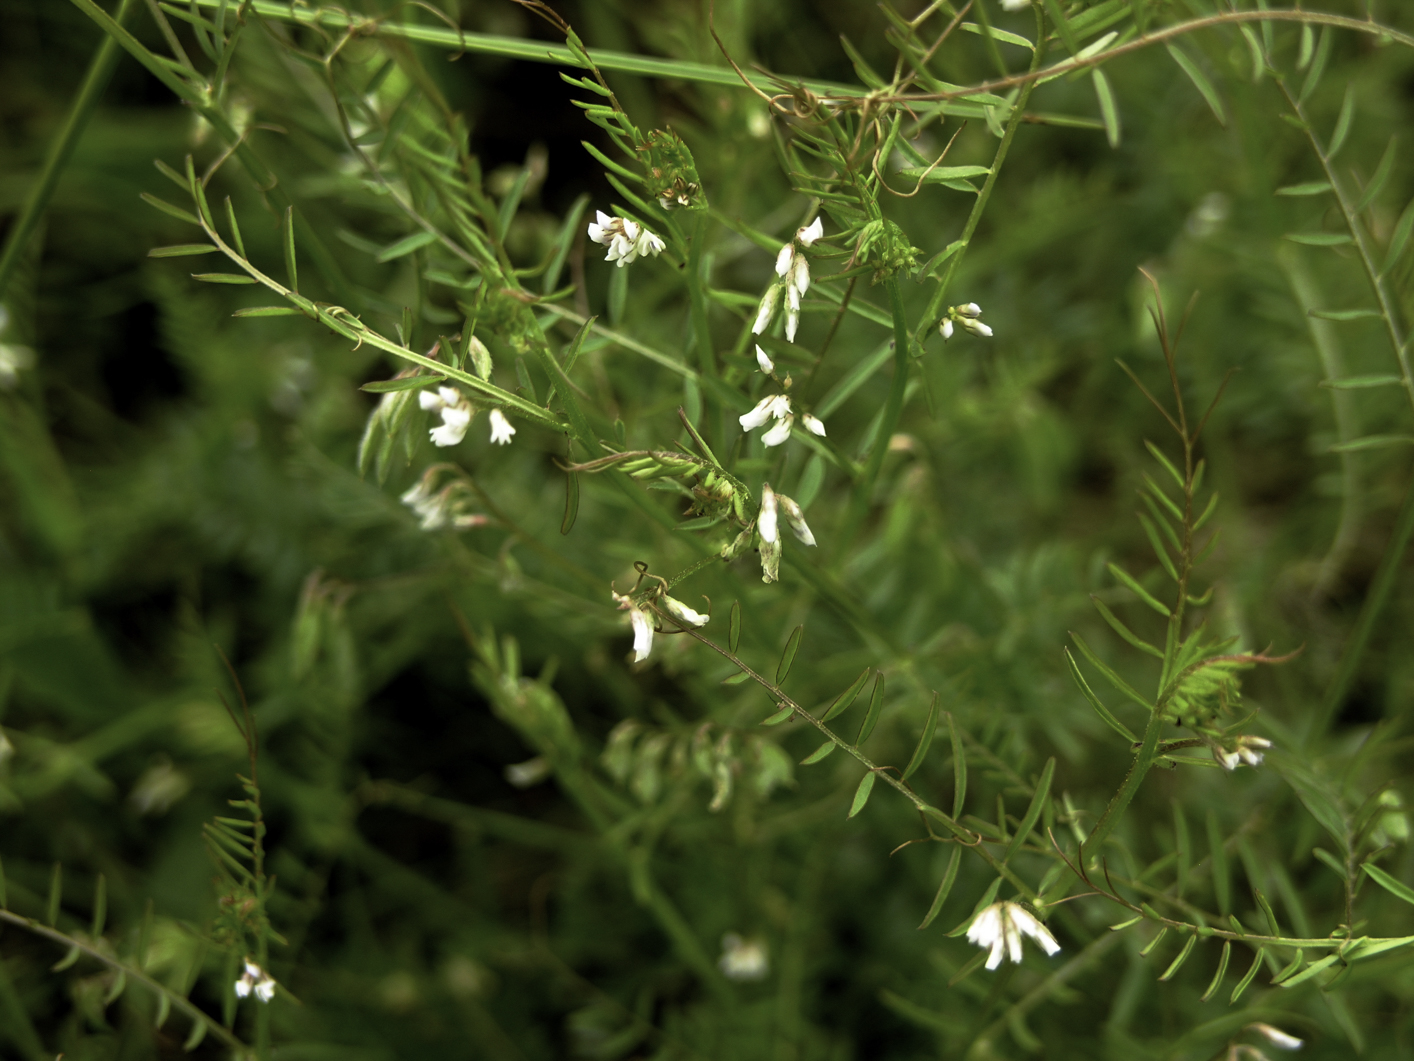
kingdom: Plantae
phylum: Tracheophyta
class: Magnoliopsida
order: Fabales
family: Fabaceae
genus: Vicia
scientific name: Vicia hirsuta
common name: Tiny vetch
